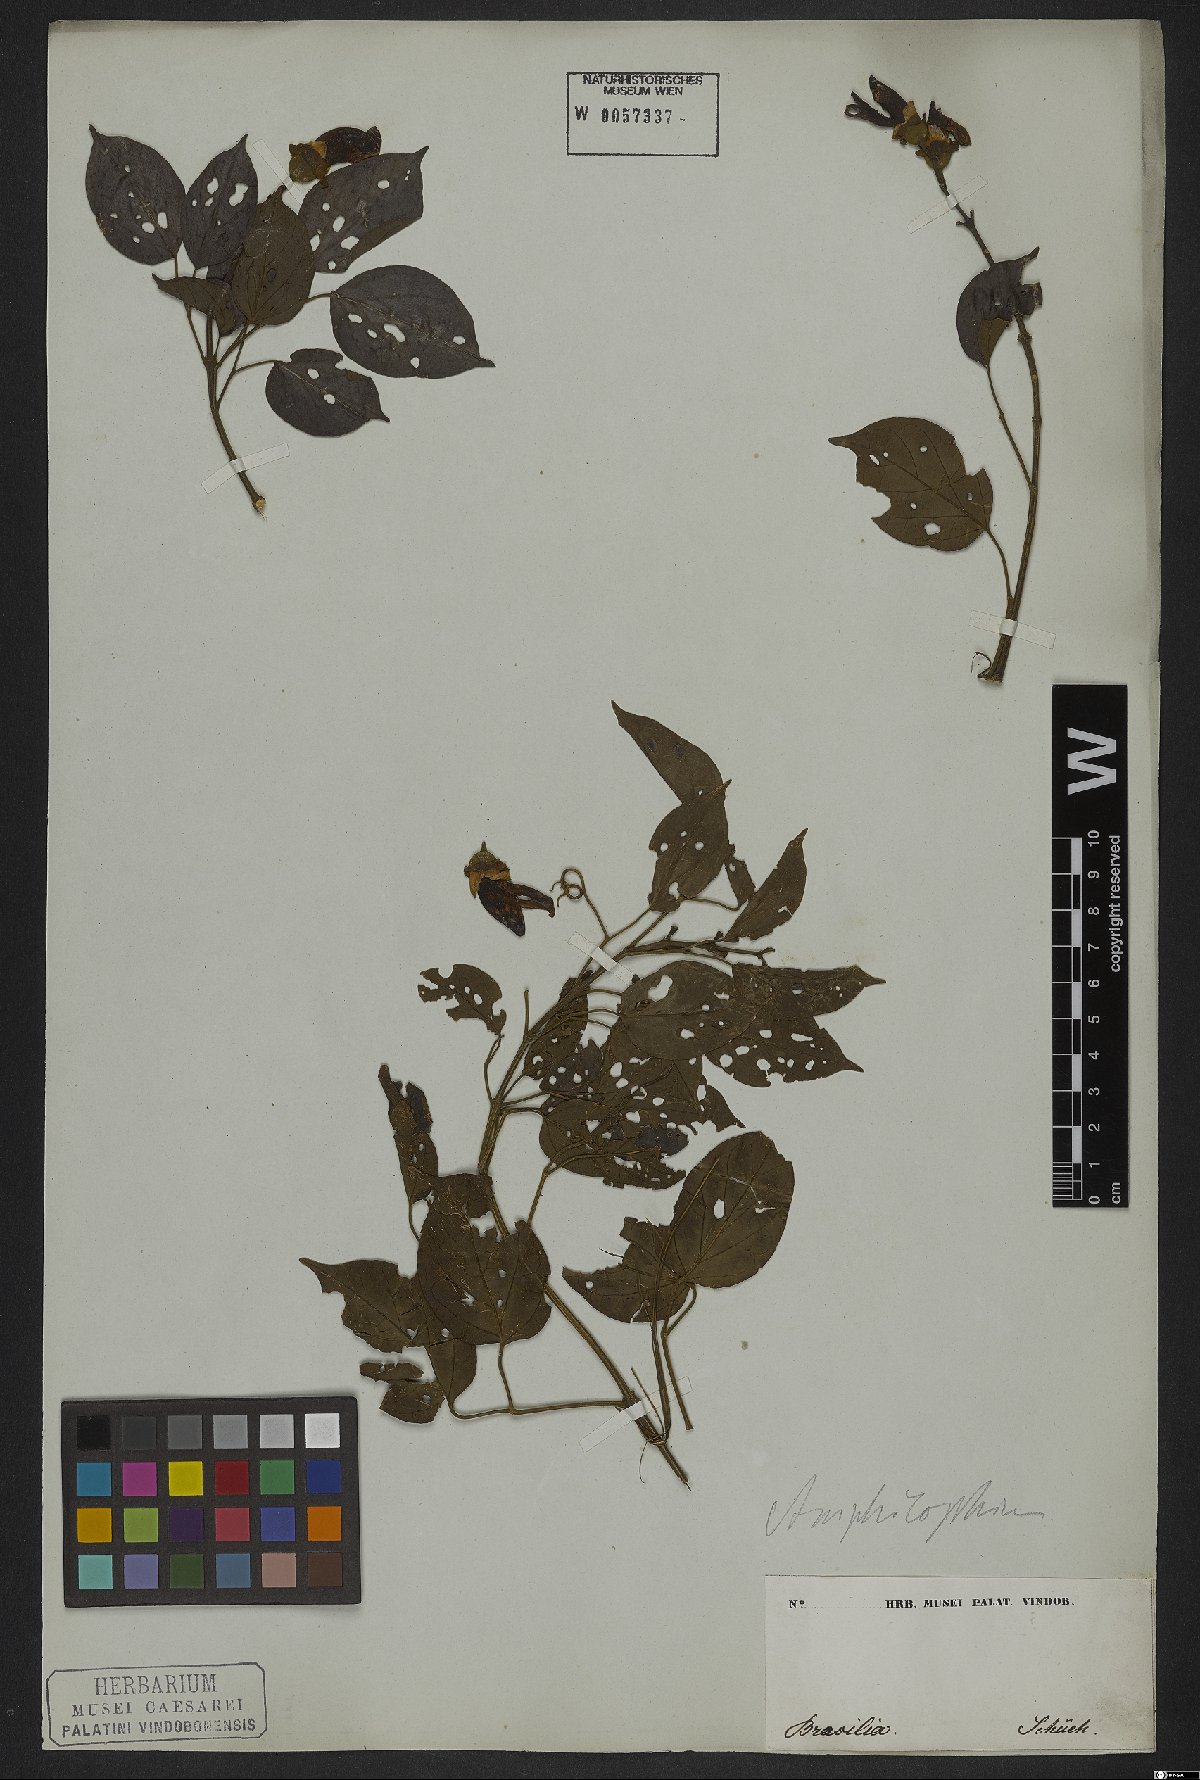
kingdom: Plantae
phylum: Tracheophyta
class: Magnoliopsida
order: Lamiales
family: Bignoniaceae
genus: Amphilophium
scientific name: Amphilophium paniculatum
